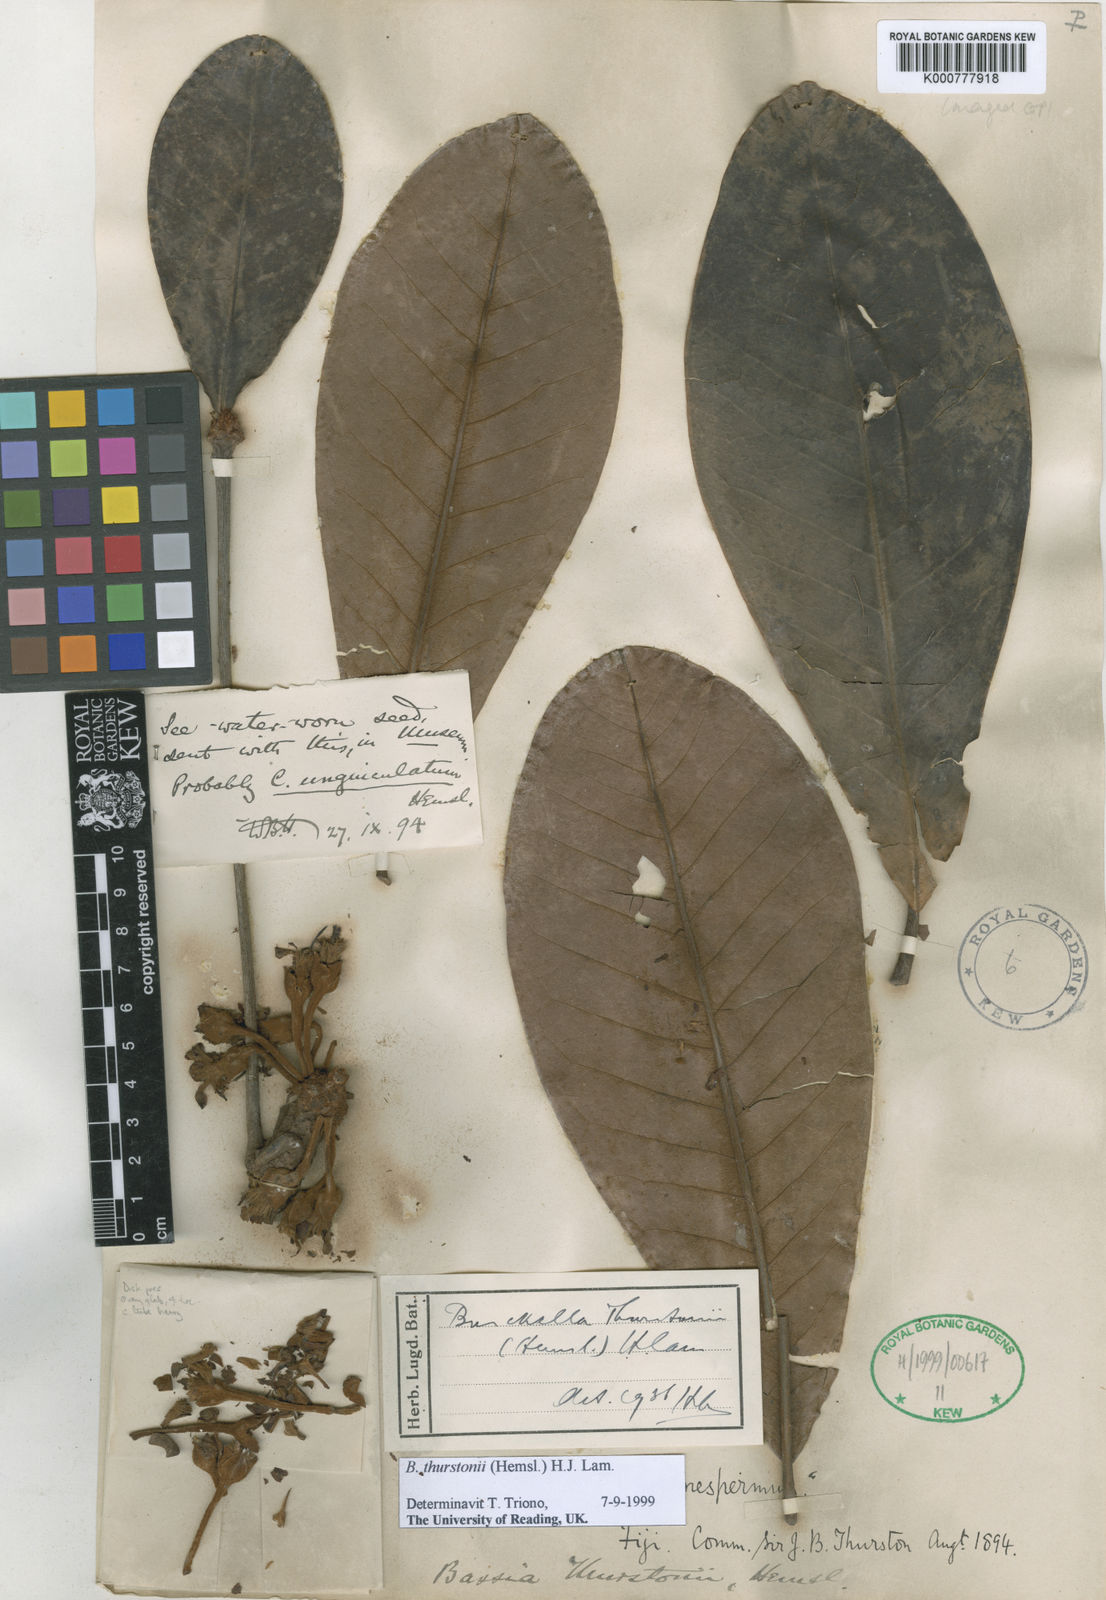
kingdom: Plantae
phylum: Tracheophyta
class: Magnoliopsida
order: Ericales
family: Sapotaceae
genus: Burckella
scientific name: Burckella thurstonii
